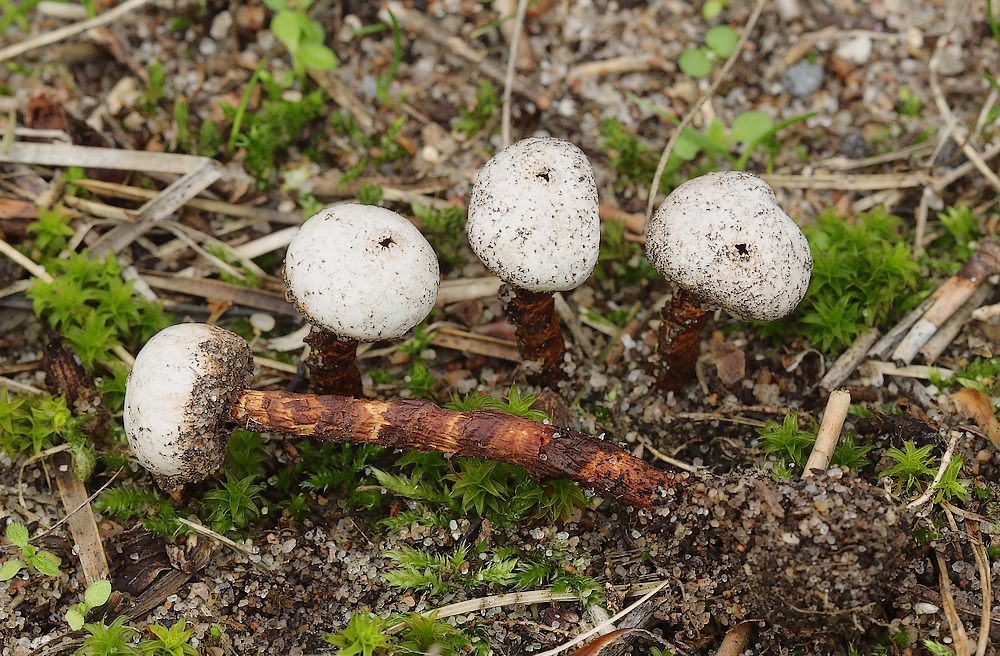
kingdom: Fungi
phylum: Basidiomycota
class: Agaricomycetes
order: Agaricales
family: Agaricaceae
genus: Tulostoma
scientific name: Tulostoma winterhoffii
